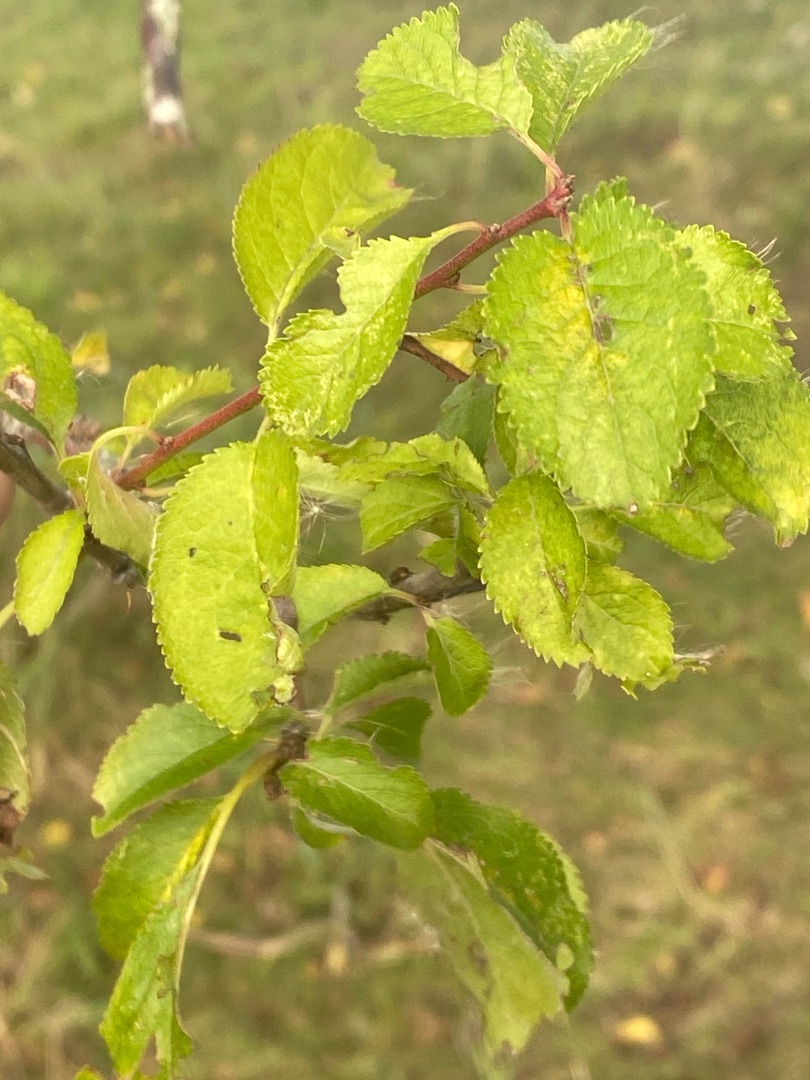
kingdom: Plantae
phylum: Tracheophyta
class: Magnoliopsida
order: Rosales
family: Rosaceae
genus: Prunus
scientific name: Prunus cerasifera
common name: Mirabel
